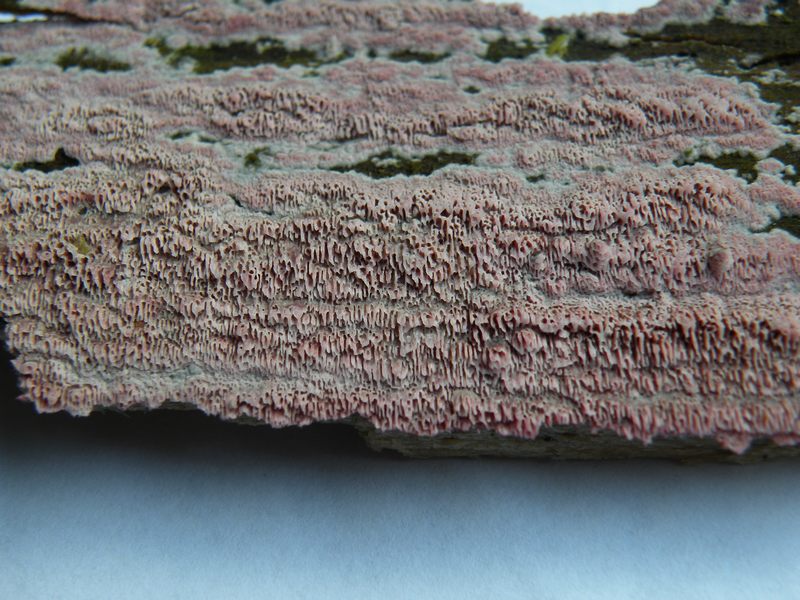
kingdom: Fungi
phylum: Basidiomycota
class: Agaricomycetes
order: Polyporales
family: Irpicaceae
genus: Ceriporia
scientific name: Ceriporia excelsa
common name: lilla voksporesvamp
